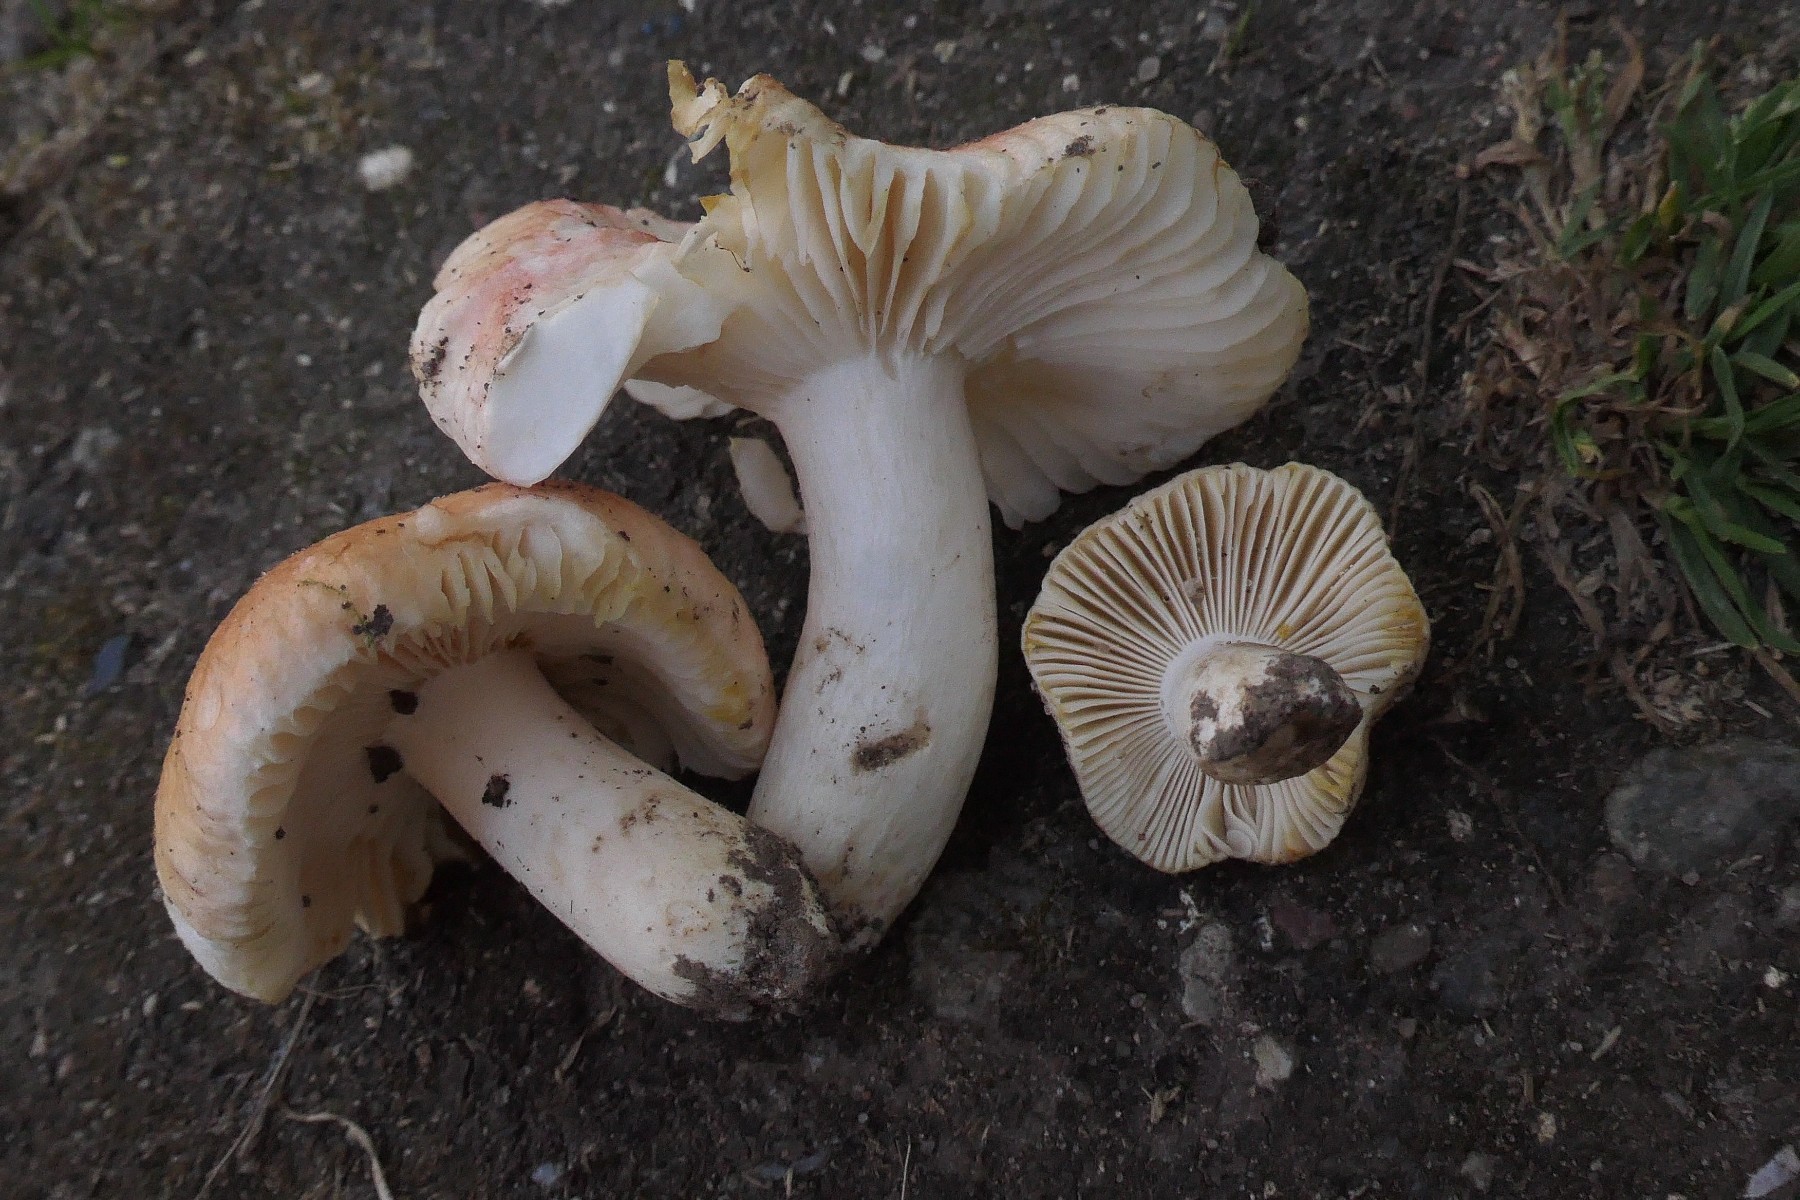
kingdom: Fungi
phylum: Basidiomycota
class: Agaricomycetes
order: Russulales
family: Russulaceae
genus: Russula
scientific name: Russula luteotacta
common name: gulplettet gift-skørhat
